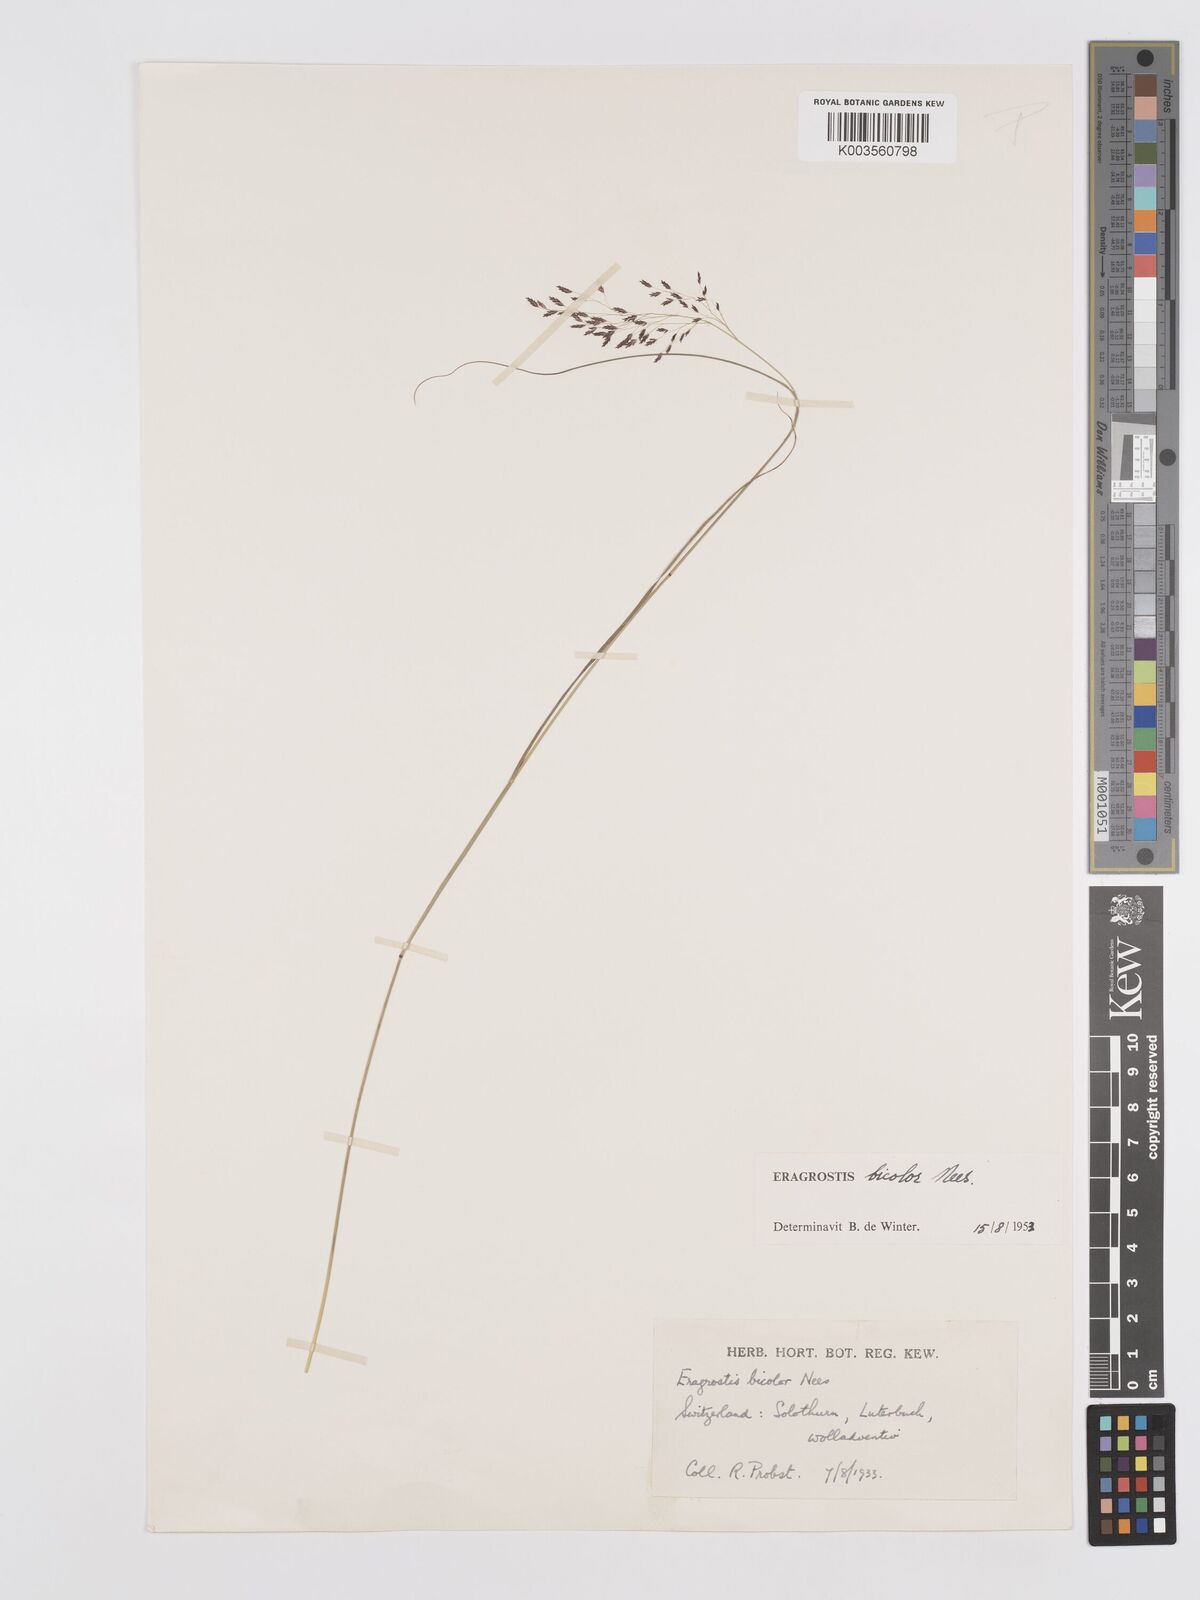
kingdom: Plantae
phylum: Tracheophyta
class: Liliopsida
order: Poales
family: Poaceae
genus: Eragrostis
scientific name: Eragrostis bicolor
